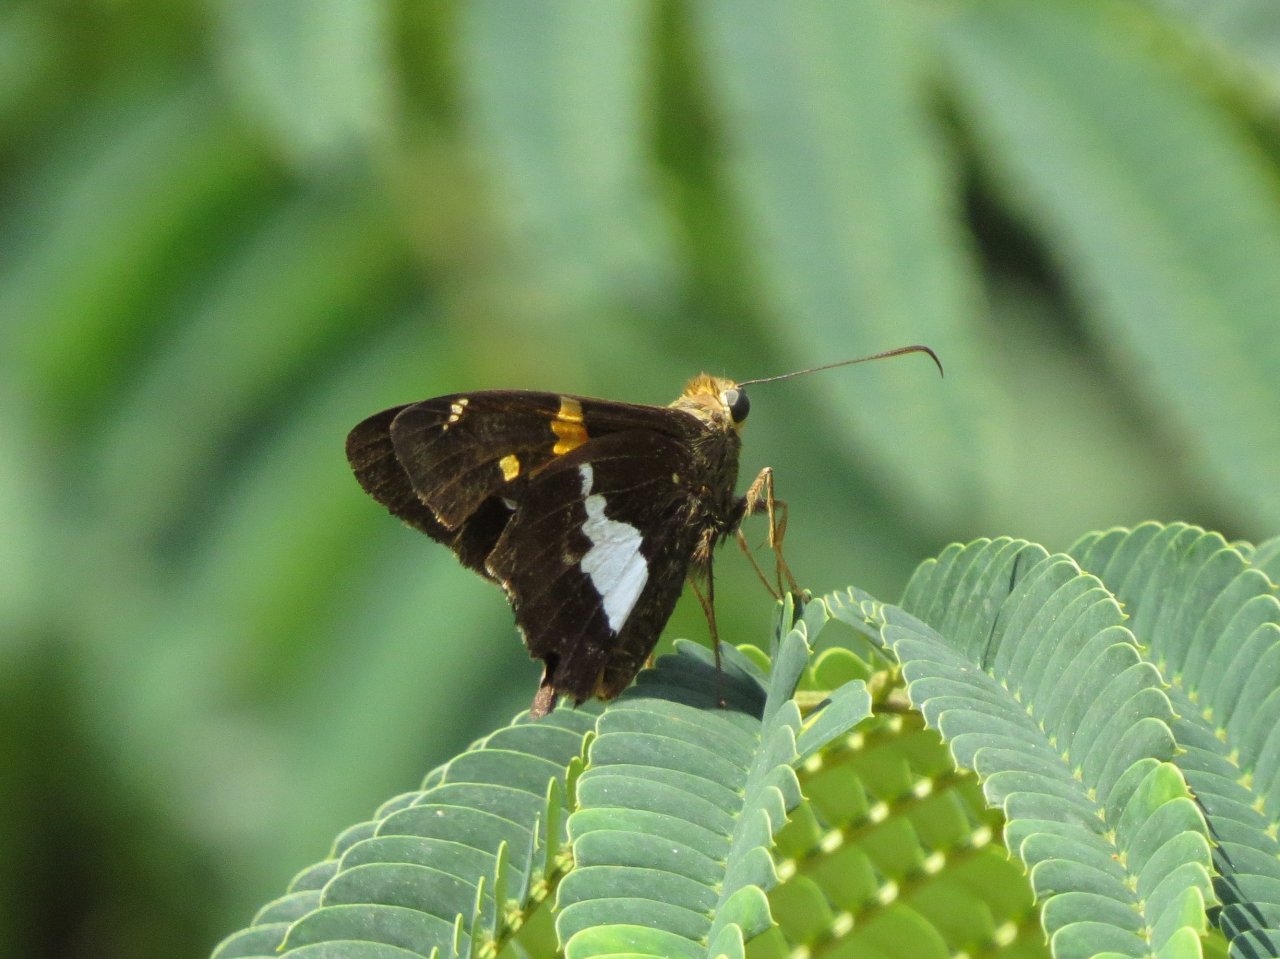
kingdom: Animalia
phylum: Arthropoda
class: Insecta
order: Lepidoptera
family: Hesperiidae
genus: Epargyreus
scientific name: Epargyreus clarus
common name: Silver-spotted Skipper
